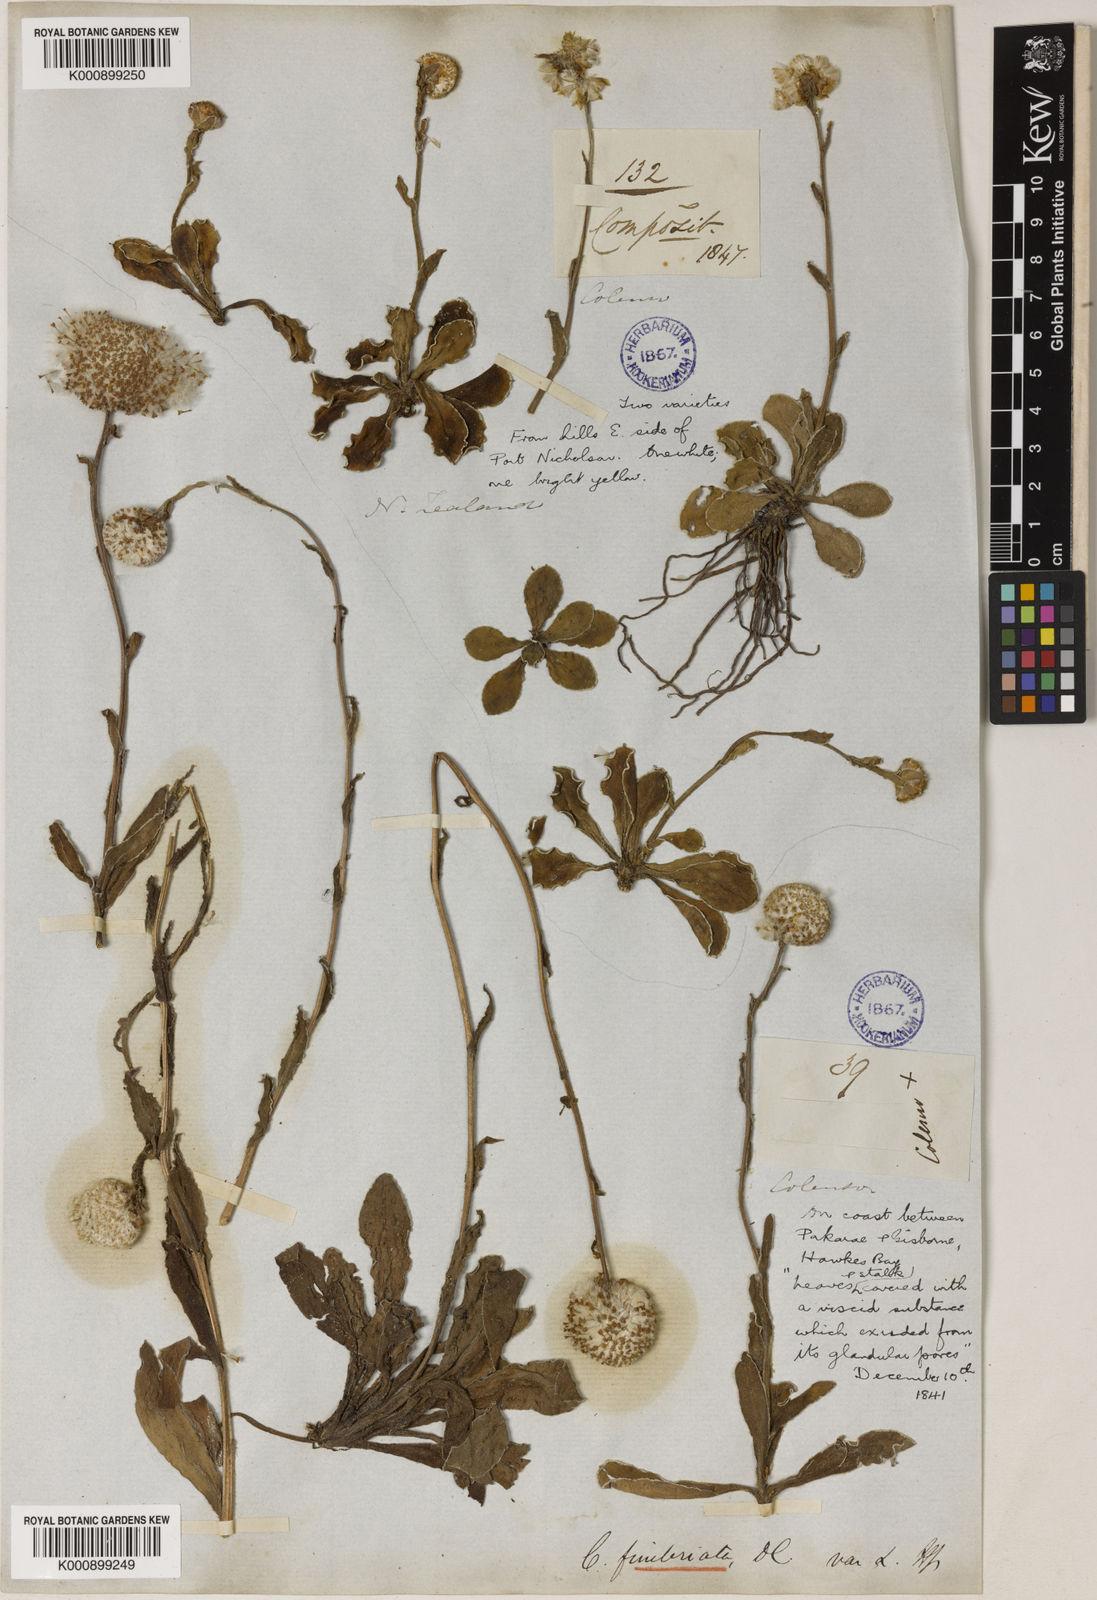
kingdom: Plantae
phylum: Tracheophyta
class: Magnoliopsida
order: Asterales
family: Asteraceae
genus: Craspedia
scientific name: Craspedia uniflora
